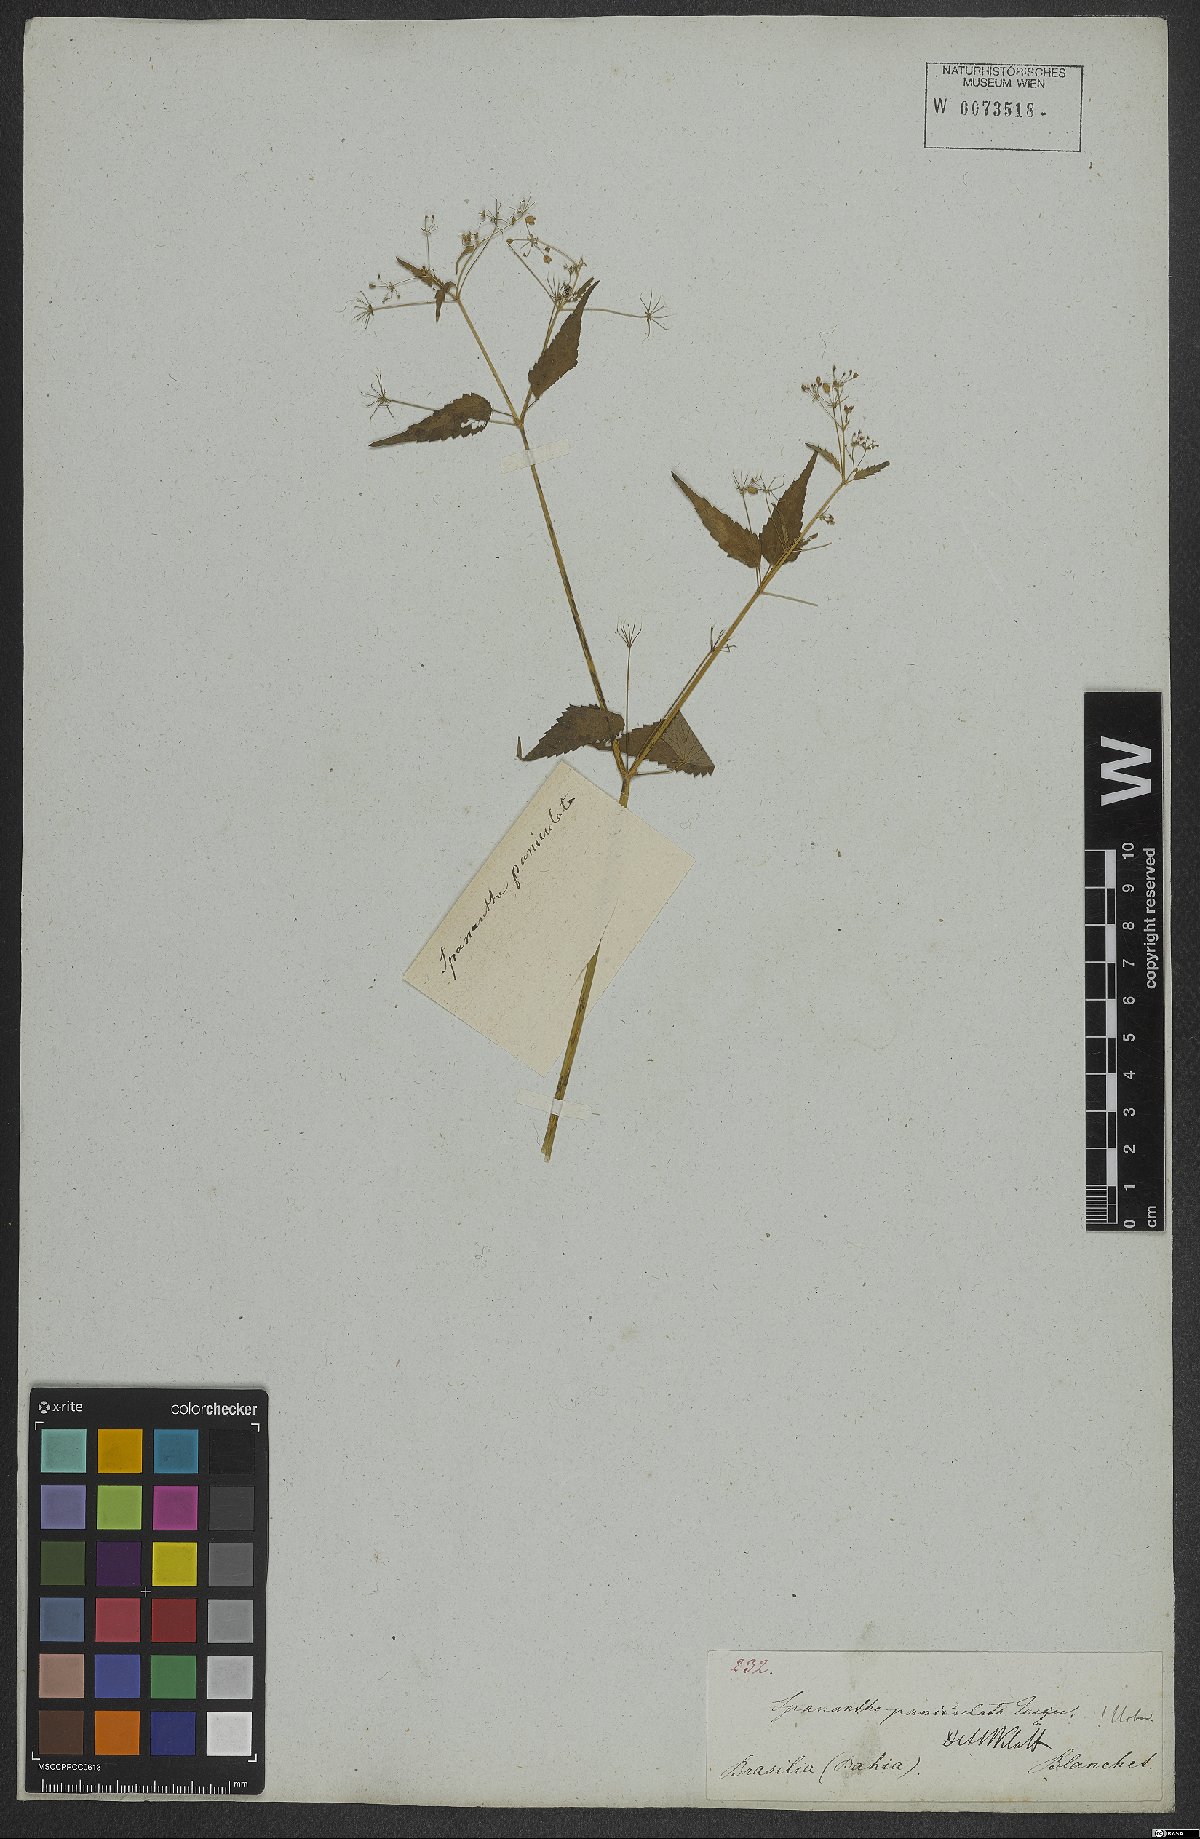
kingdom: Plantae
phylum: Tracheophyta
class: Magnoliopsida
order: Apiales
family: Apiaceae
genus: Spananthe
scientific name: Spananthe paniculata
